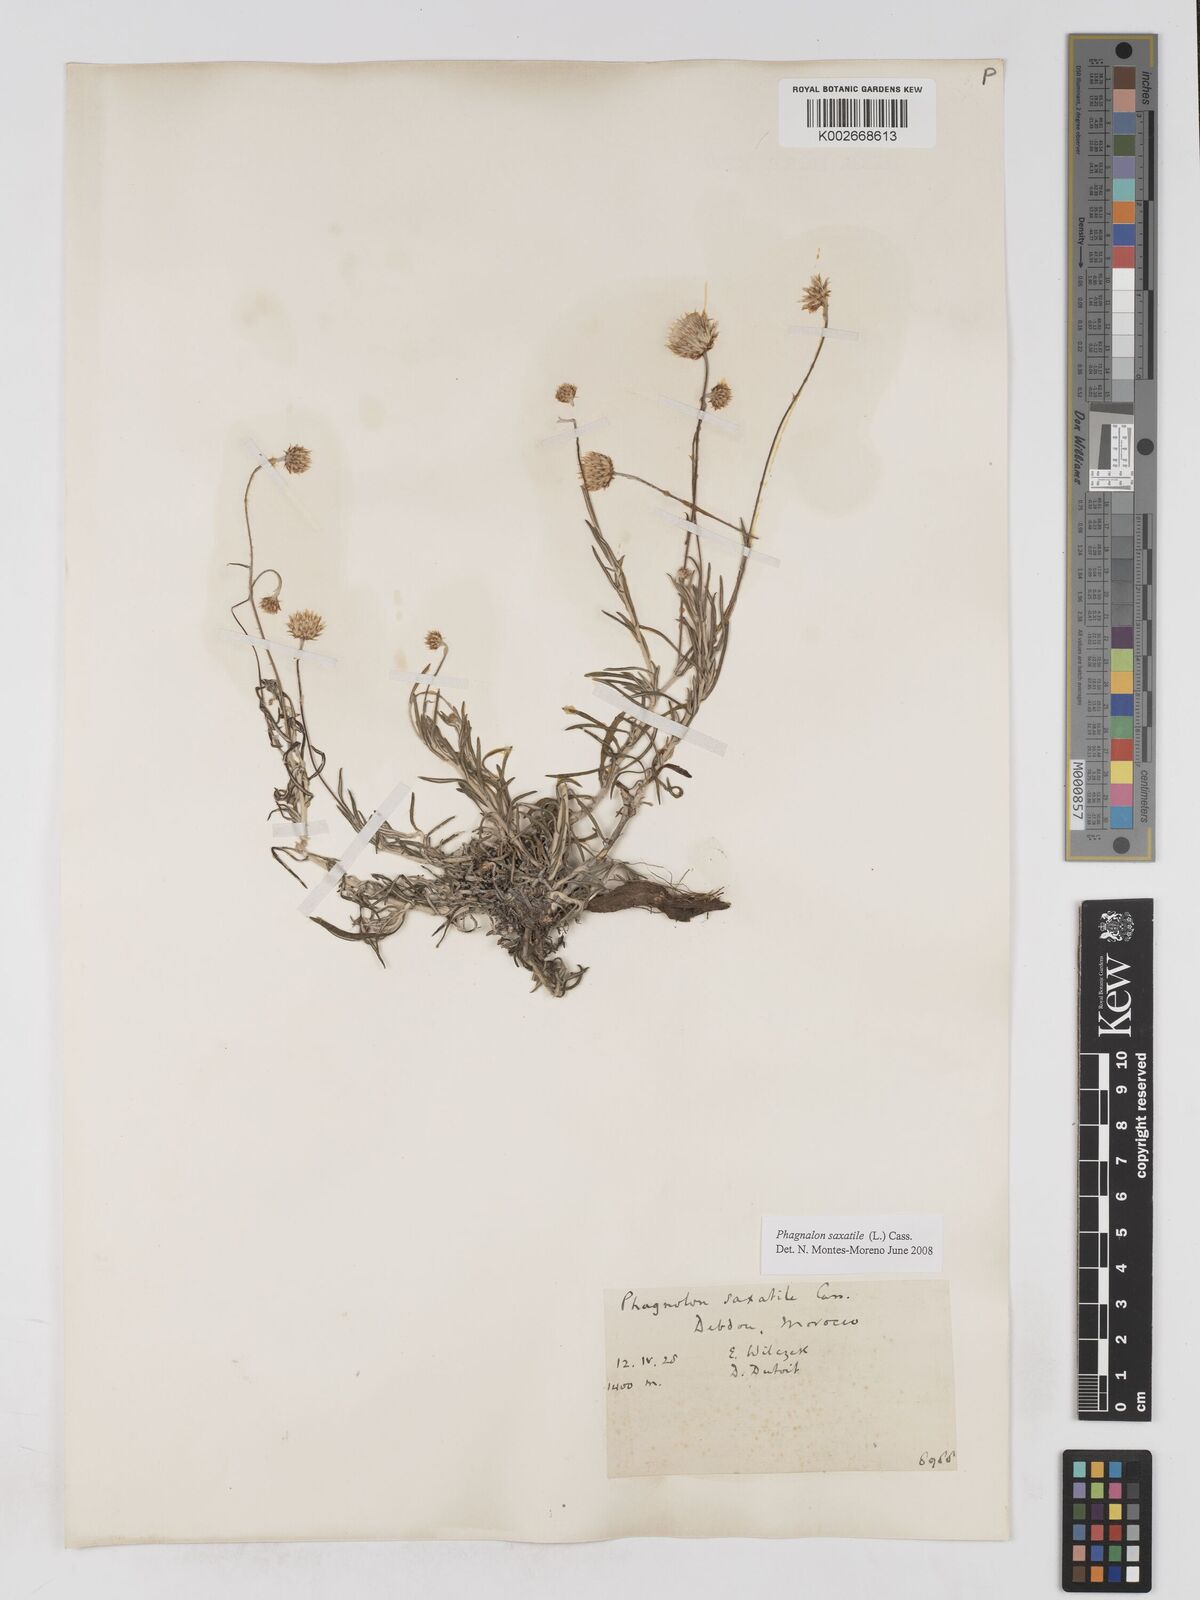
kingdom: Plantae
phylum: Tracheophyta
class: Magnoliopsida
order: Asterales
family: Asteraceae
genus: Phagnalon
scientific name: Phagnalon saxatile
